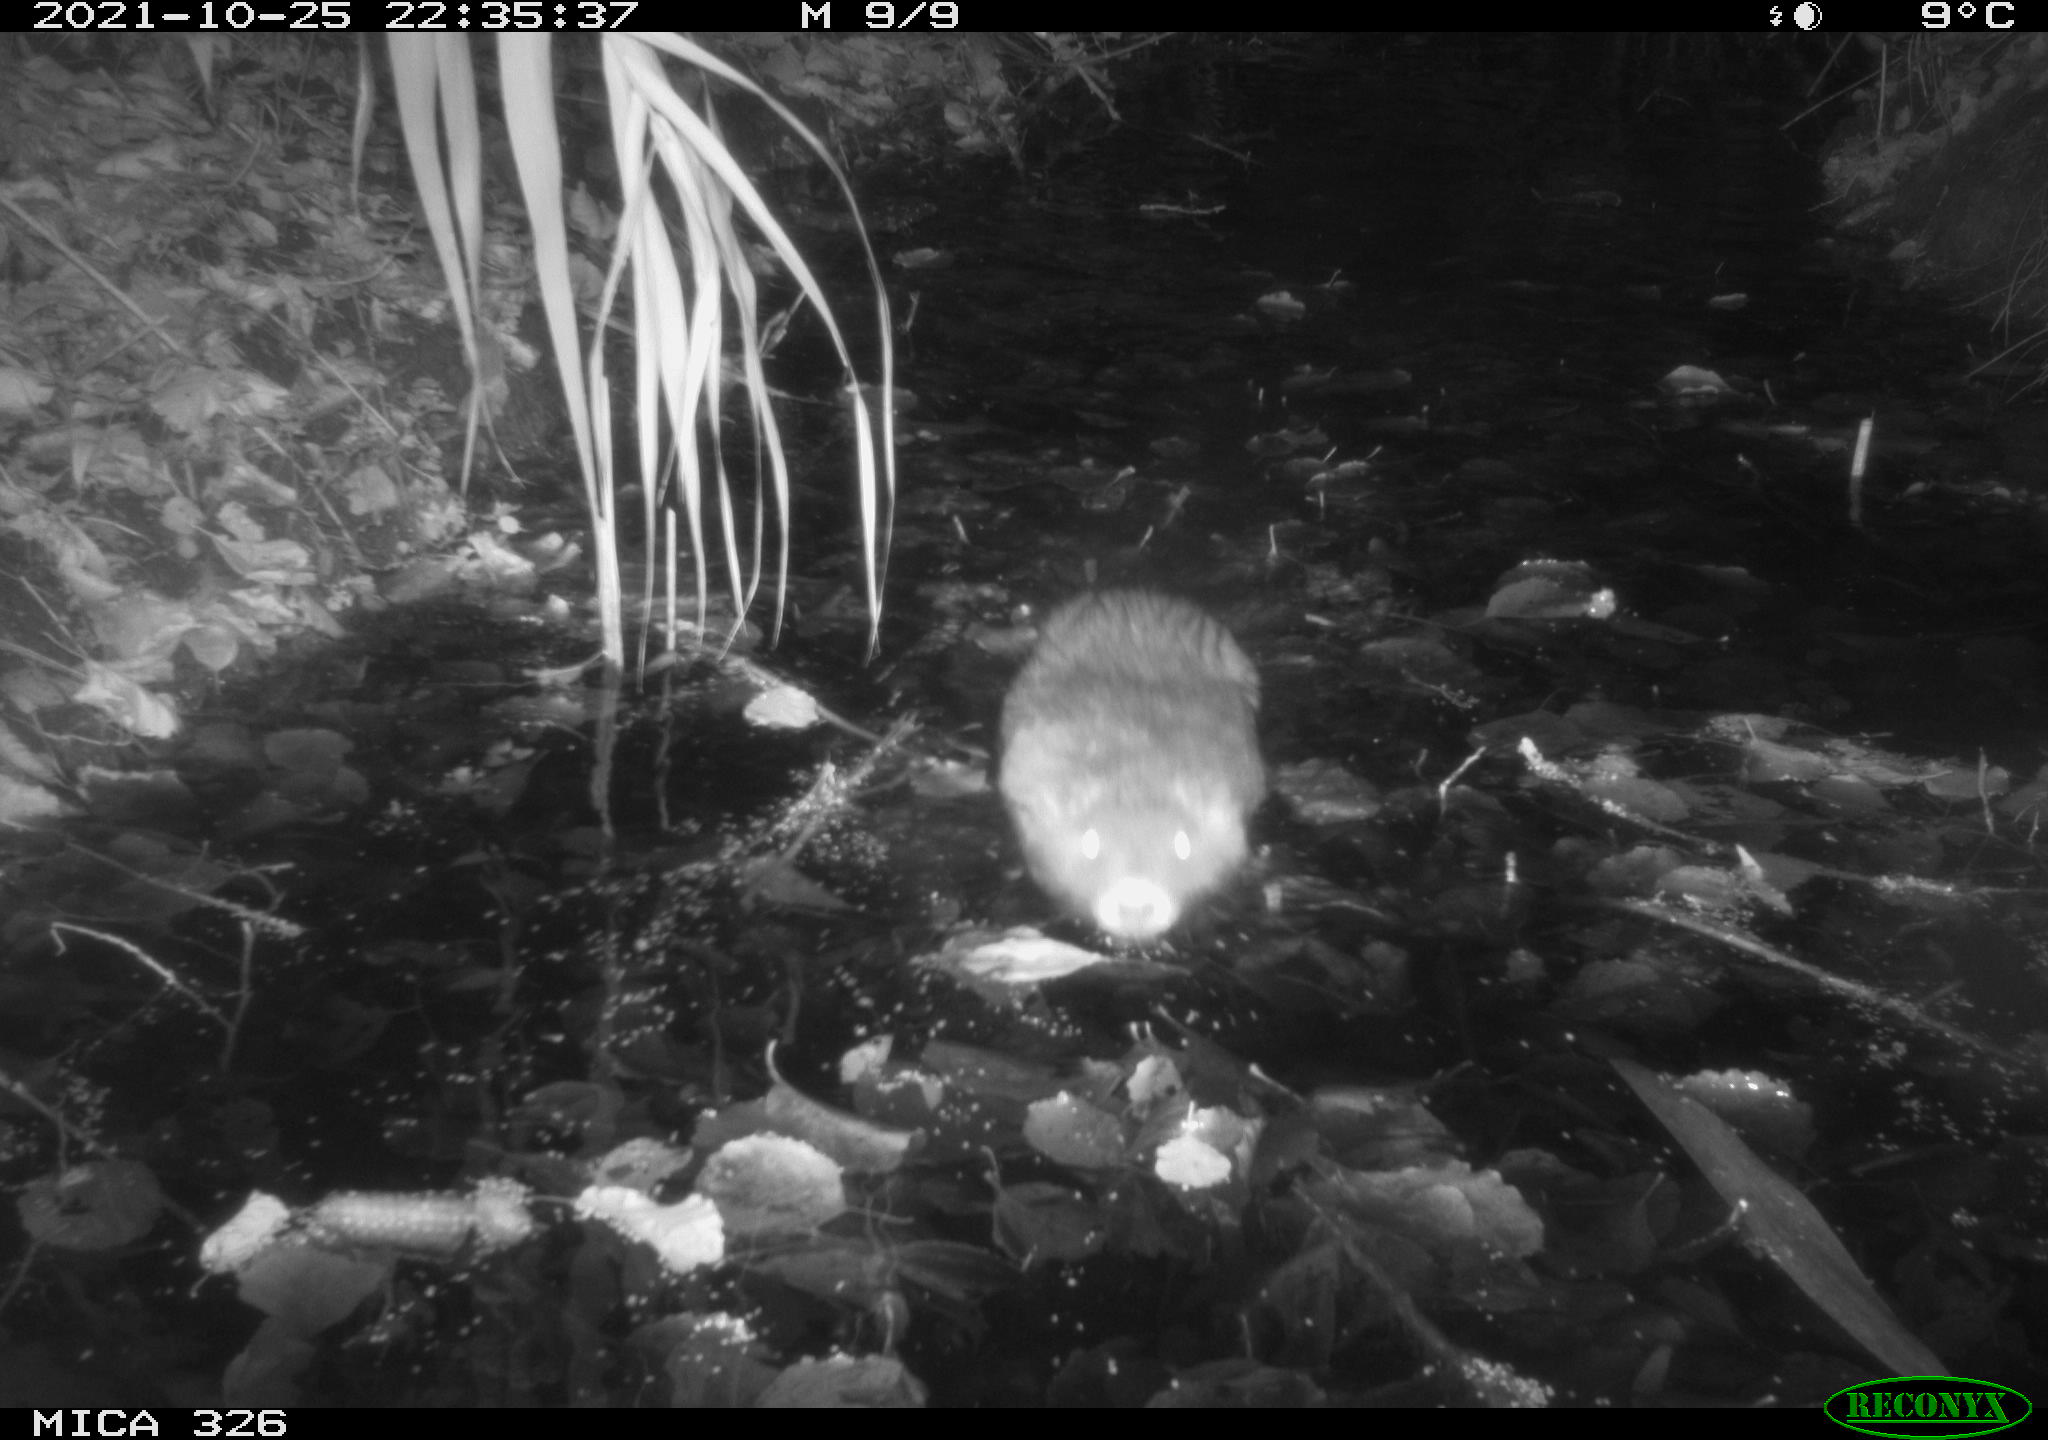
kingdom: Animalia
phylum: Chordata
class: Mammalia
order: Rodentia
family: Myocastoridae
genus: Myocastor
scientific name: Myocastor coypus
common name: Coypu
